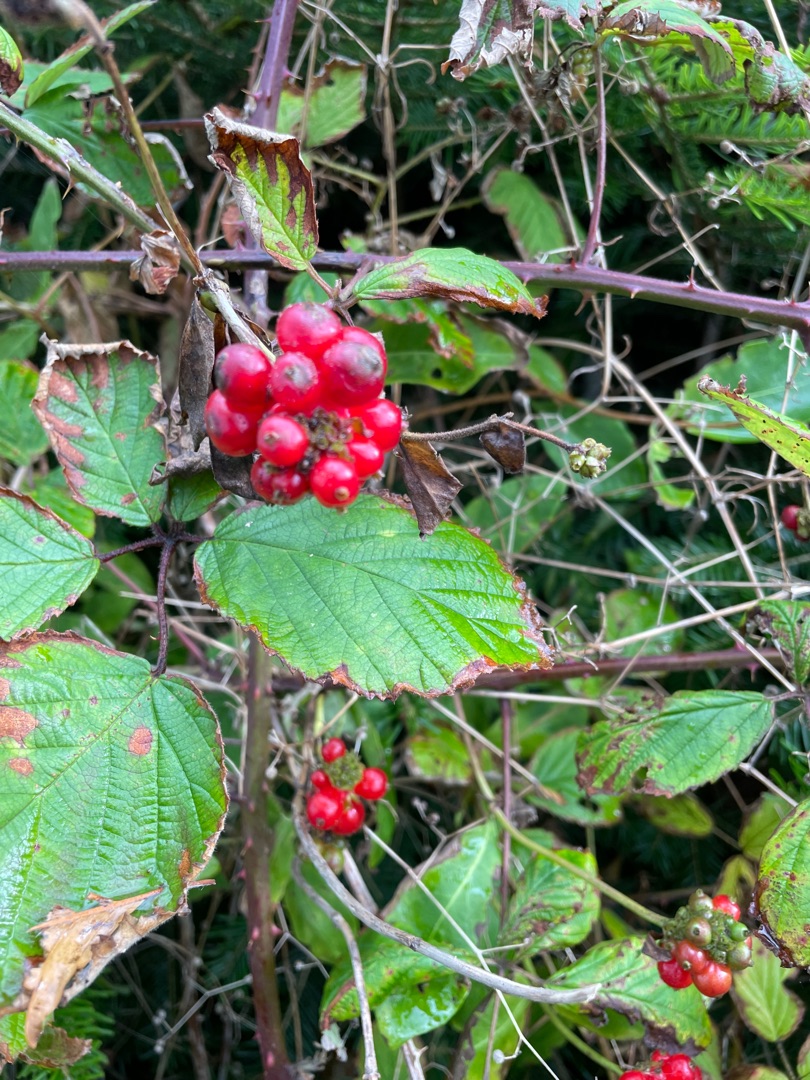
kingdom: Plantae
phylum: Tracheophyta
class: Magnoliopsida
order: Rosales
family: Rosaceae
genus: Rubus
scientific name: Rubus
